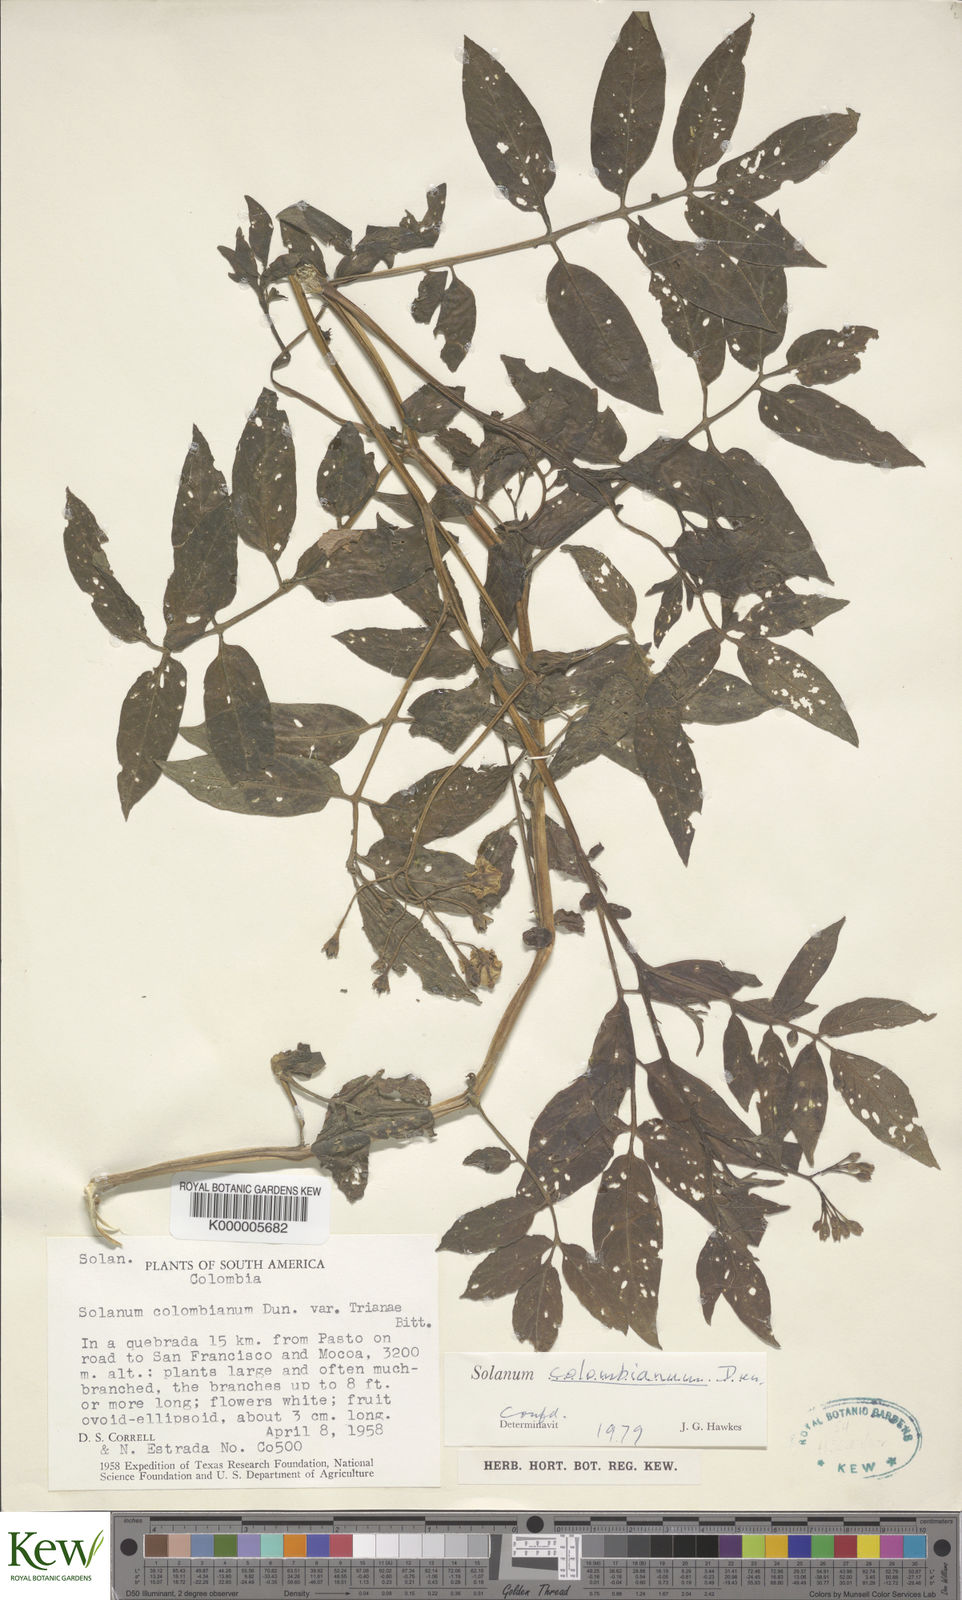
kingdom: Plantae
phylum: Tracheophyta
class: Magnoliopsida
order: Solanales
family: Solanaceae
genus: Solanum
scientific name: Solanum colombianum
